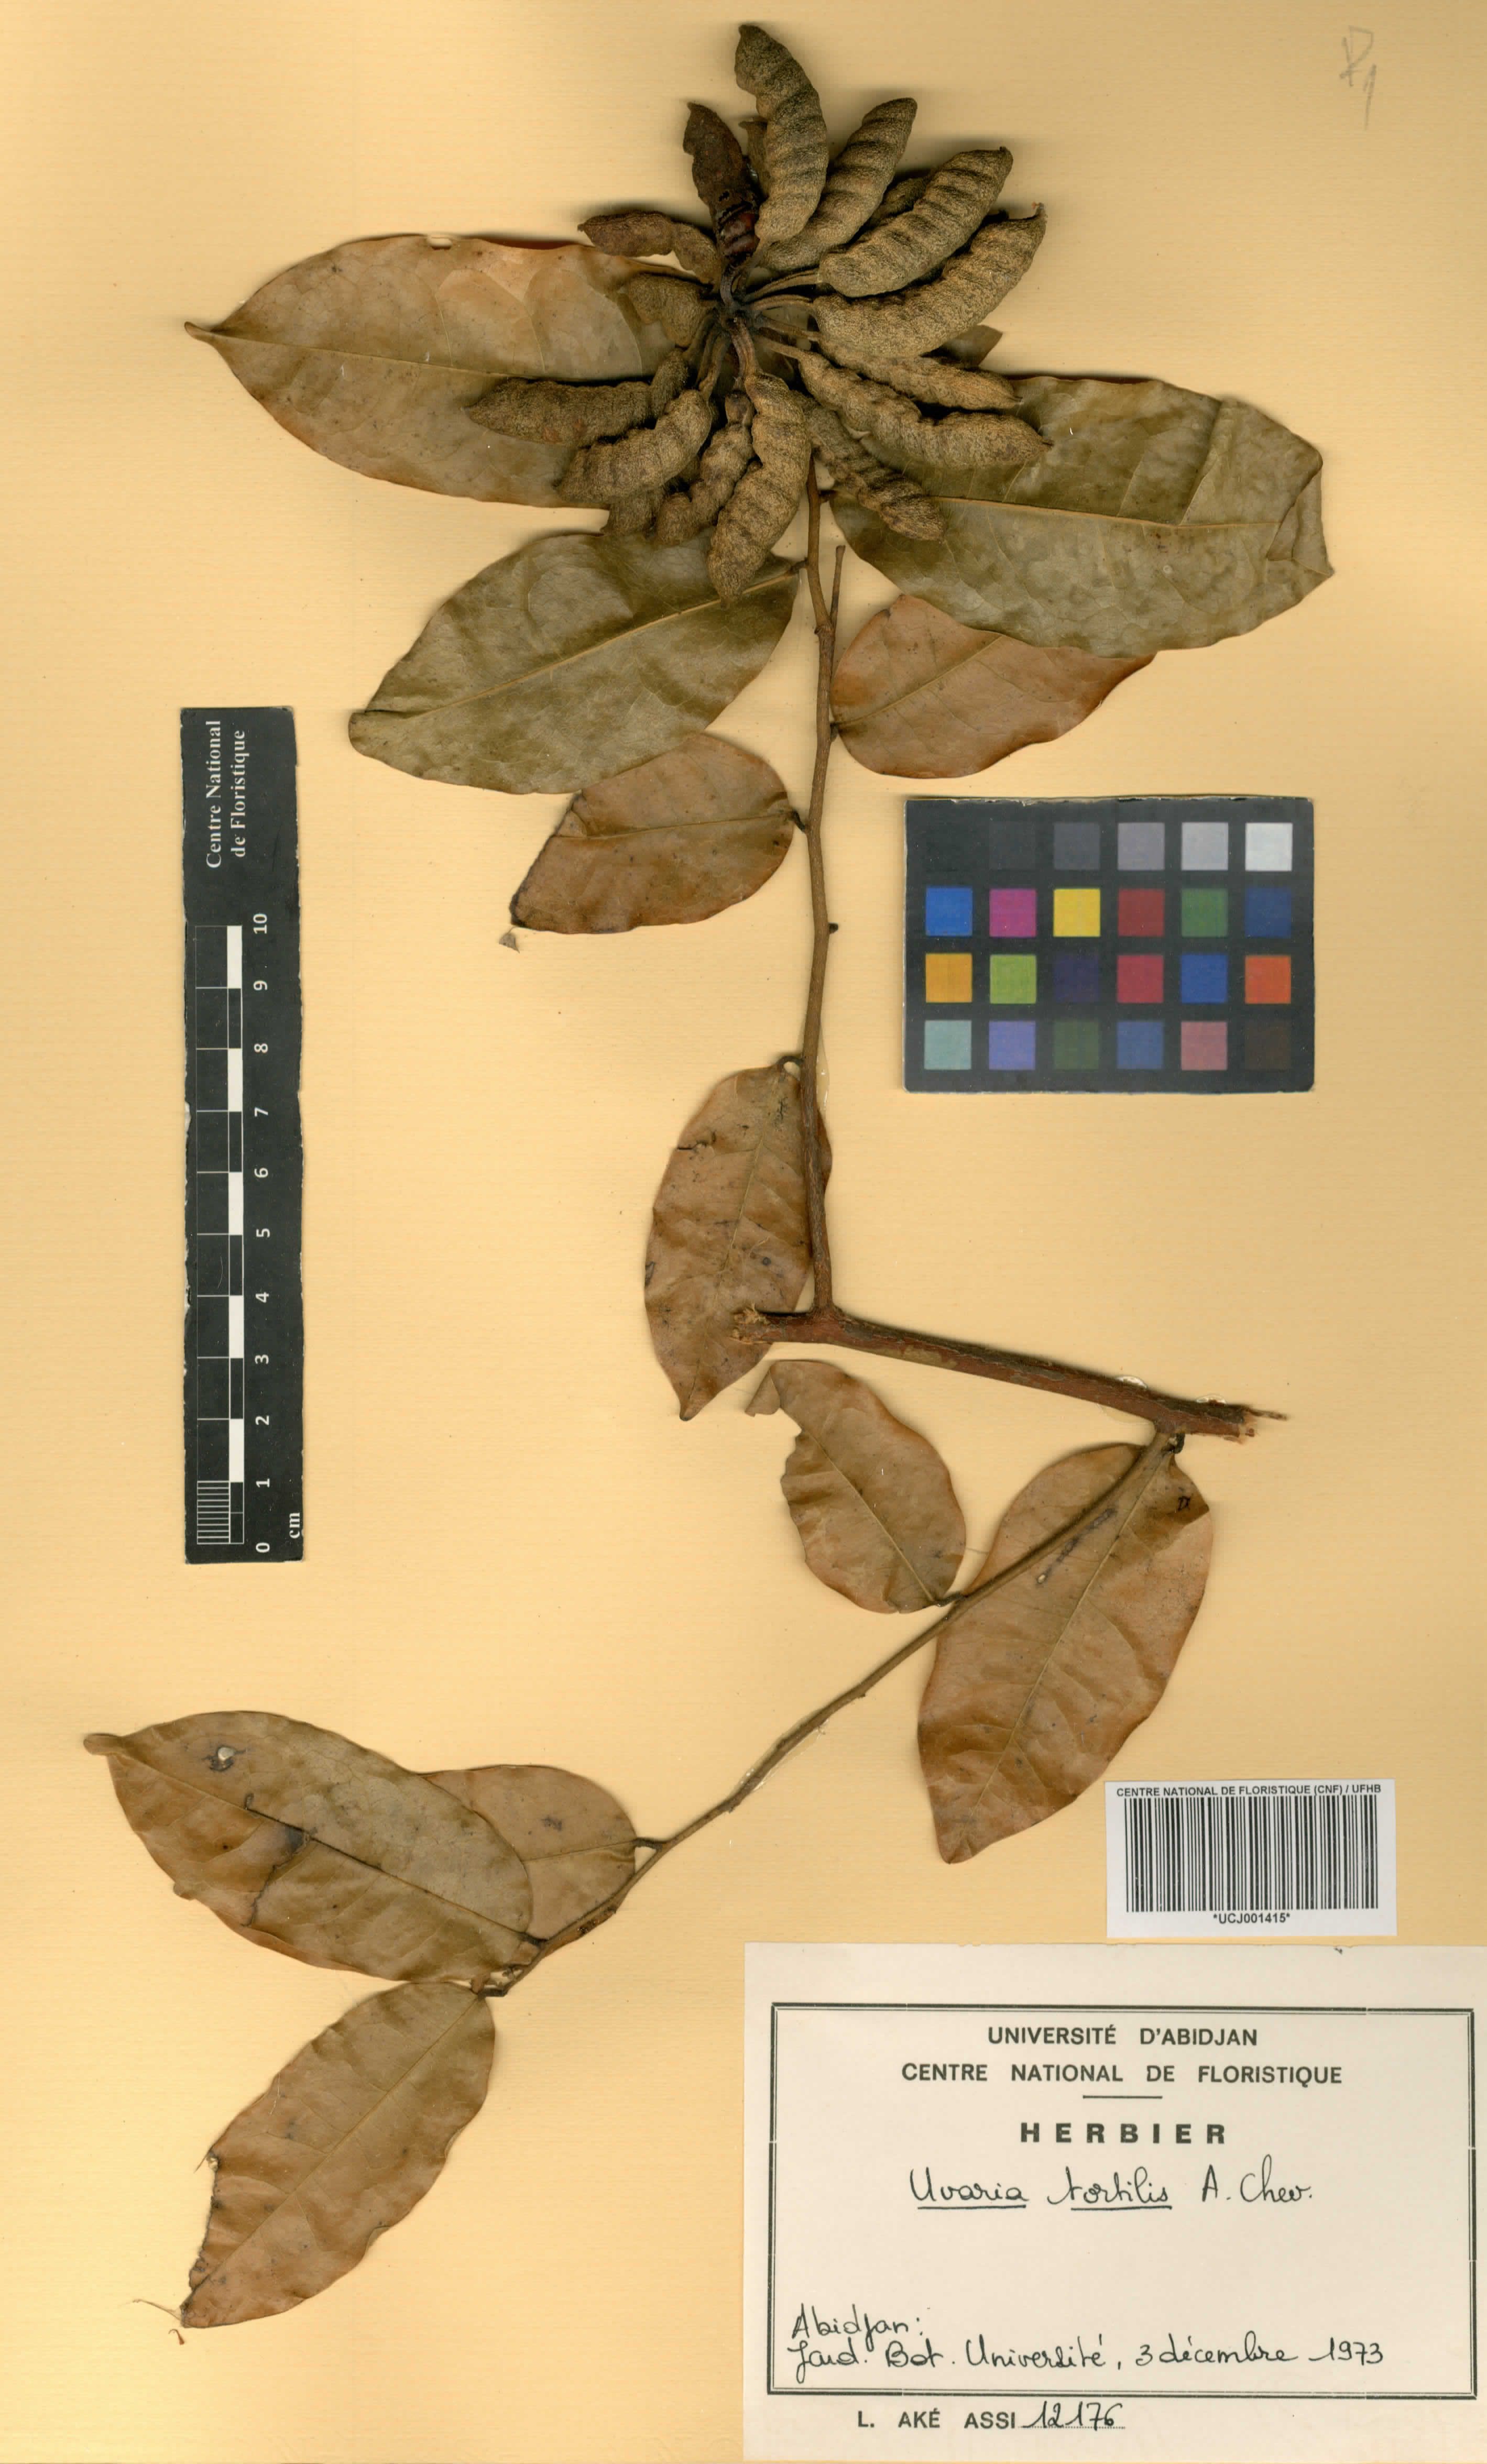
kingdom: Plantae
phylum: Tracheophyta
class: Magnoliopsida
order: Magnoliales
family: Annonaceae
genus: Uvaria
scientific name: Uvaria tortilis
